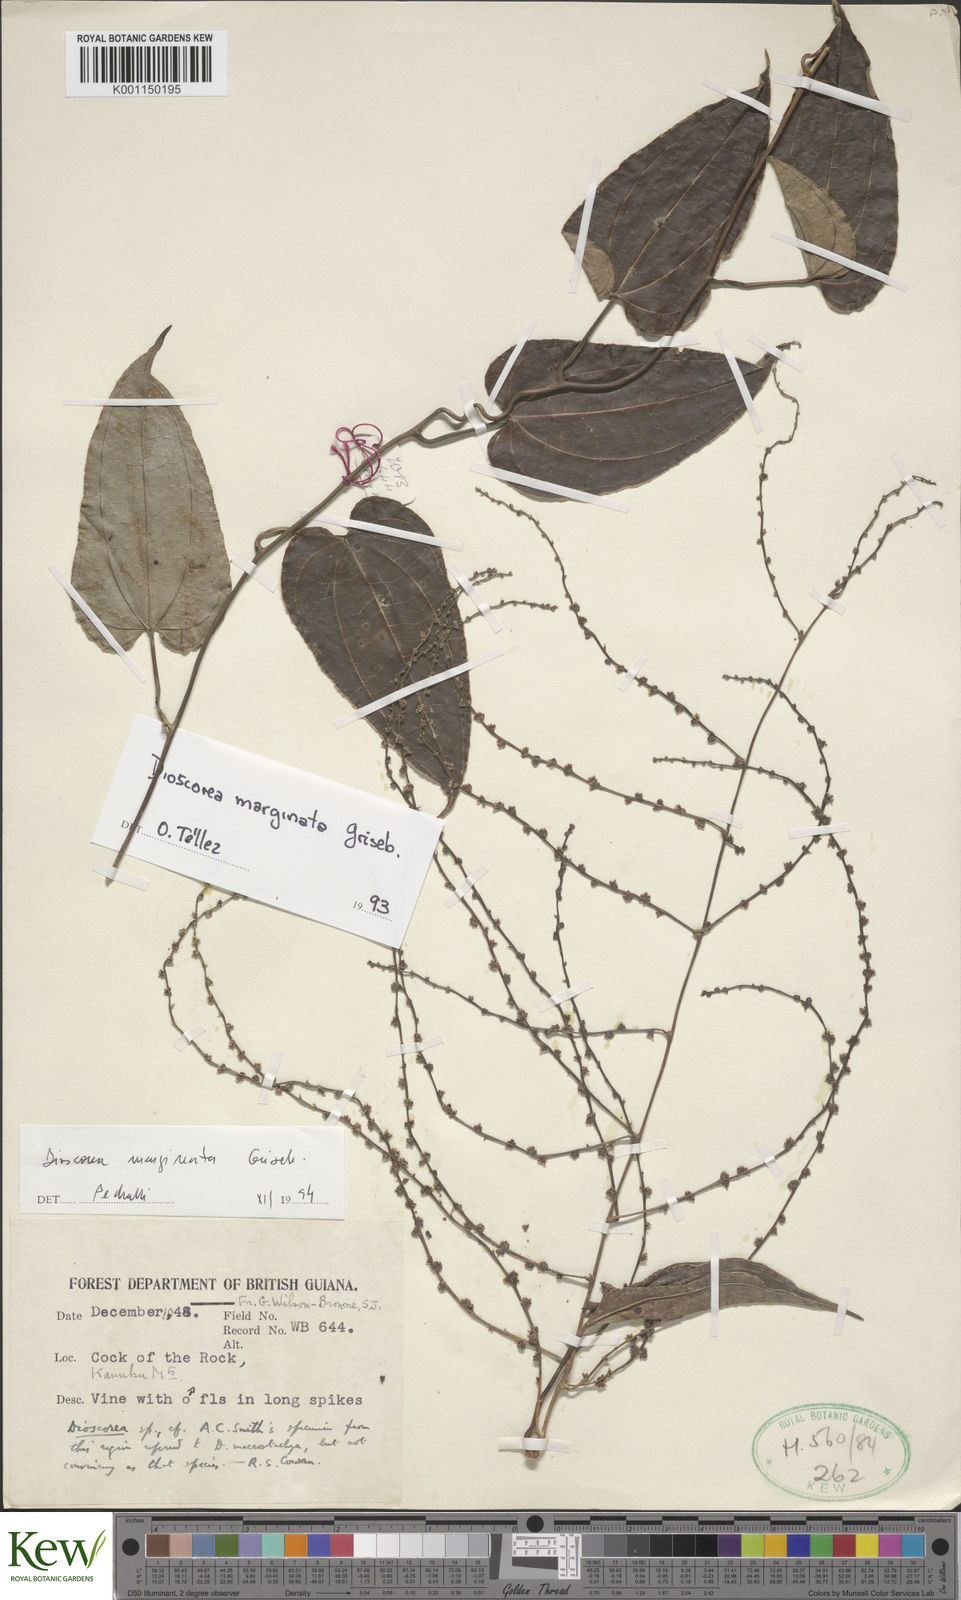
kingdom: Plantae
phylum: Tracheophyta
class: Liliopsida
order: Dioscoreales
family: Dioscoreaceae
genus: Dioscorea
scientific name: Dioscorea multiflora
